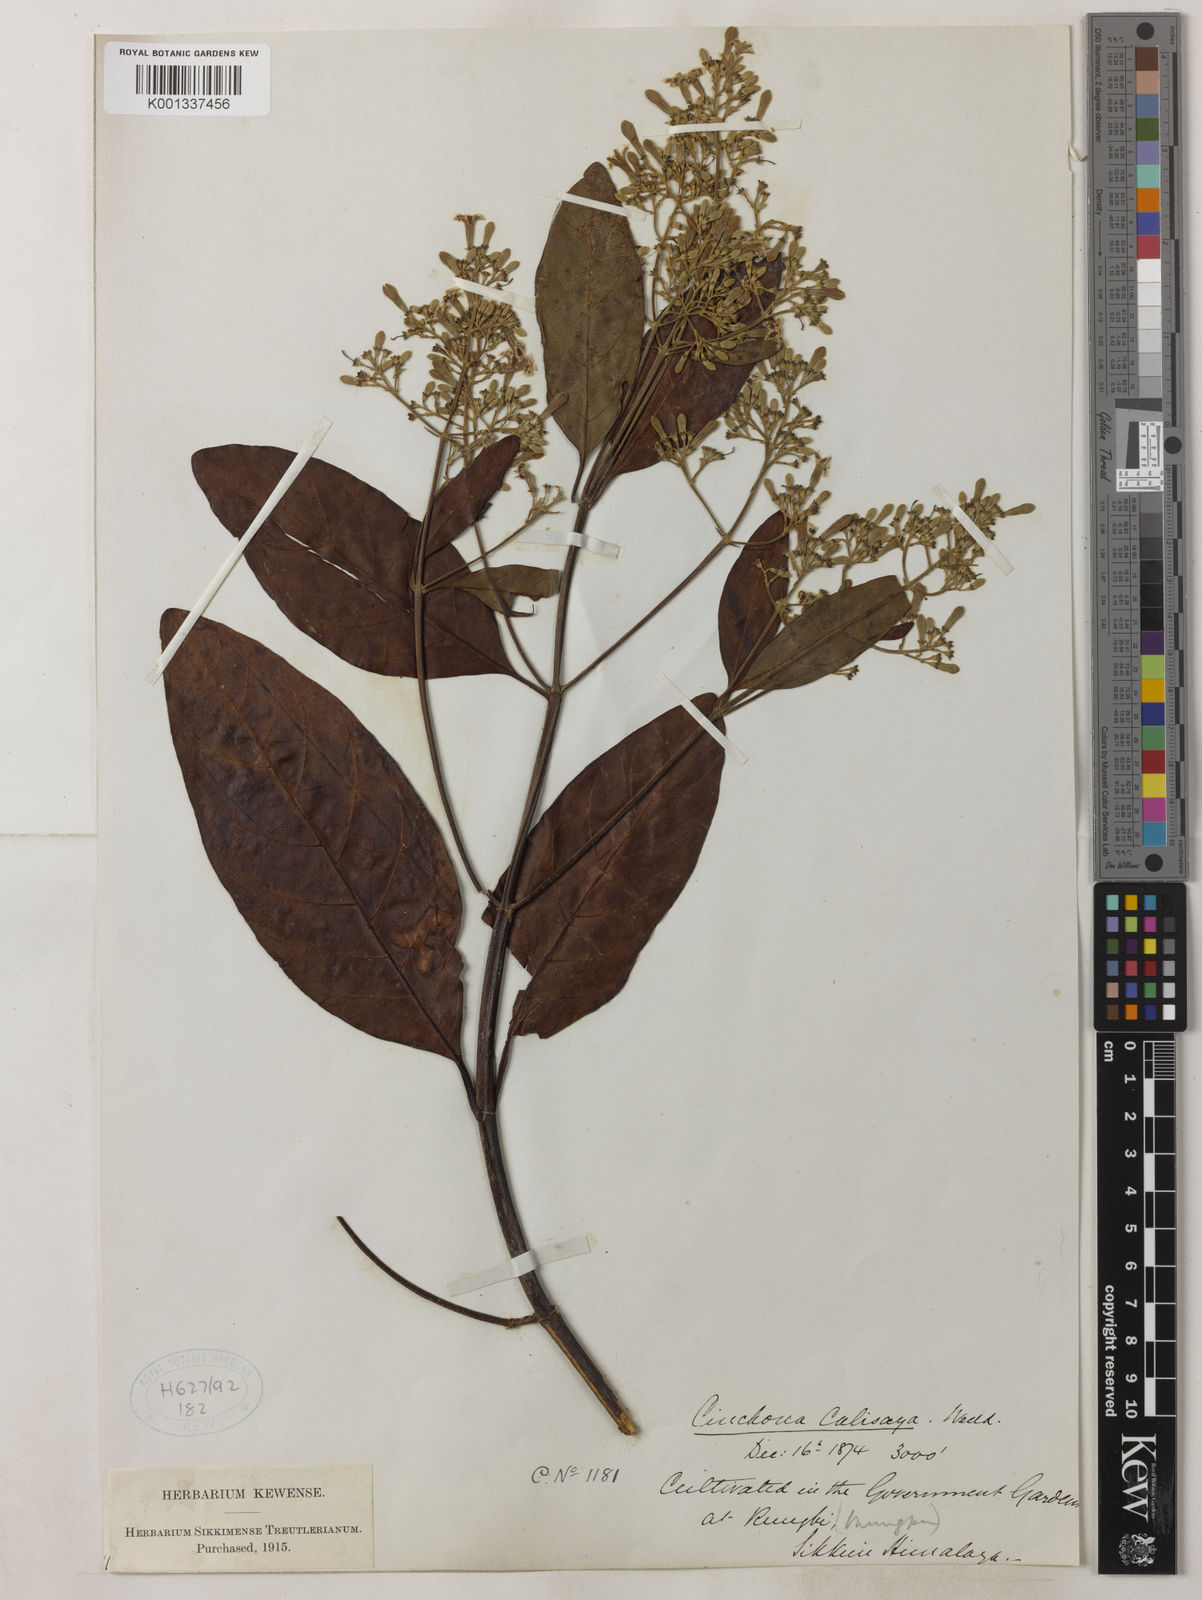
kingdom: Plantae
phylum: Tracheophyta
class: Magnoliopsida
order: Gentianales
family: Rubiaceae
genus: Cinchona
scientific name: Cinchona calisaya
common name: Ledgerbark
